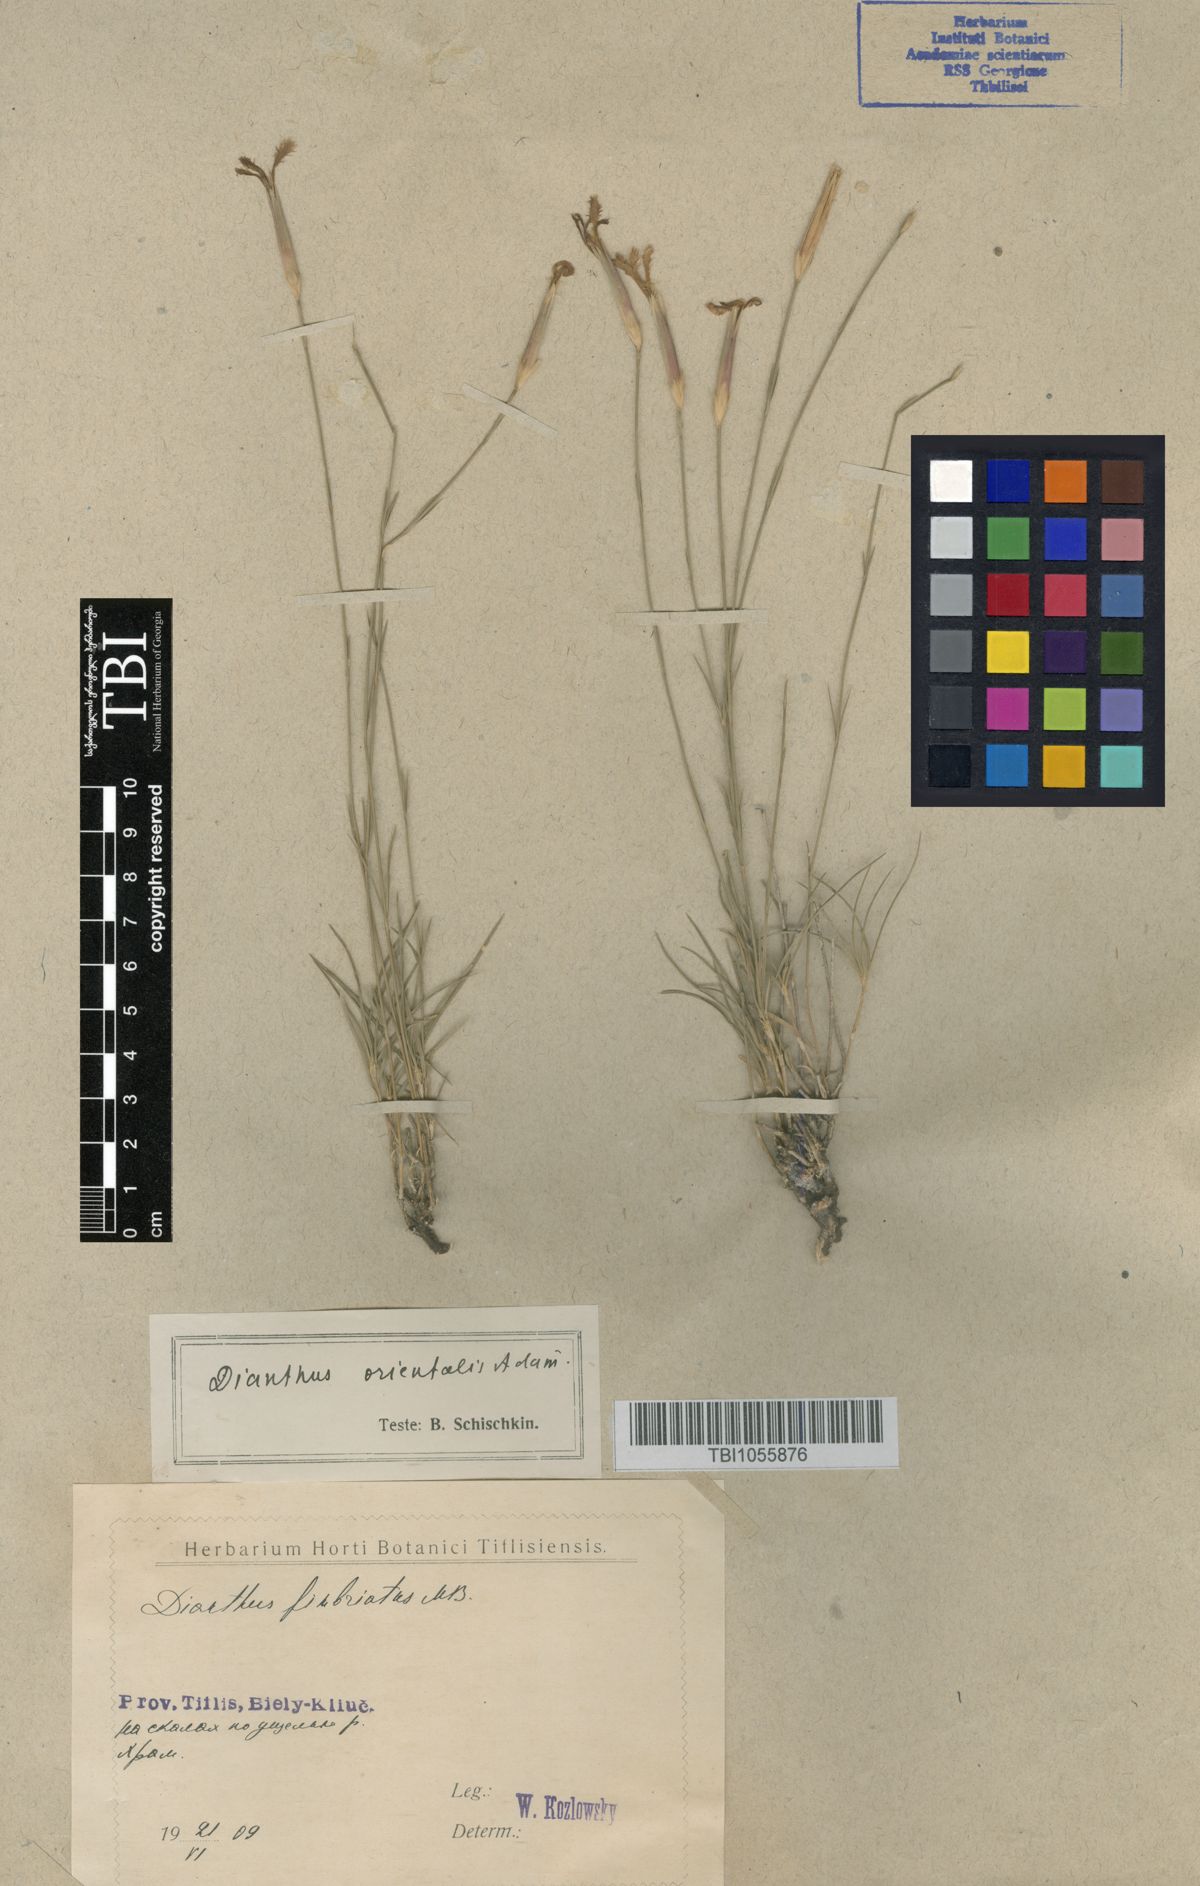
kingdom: Plantae
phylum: Tracheophyta
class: Magnoliopsida
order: Caryophyllales
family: Caryophyllaceae
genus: Dianthus
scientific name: Dianthus orientalis
